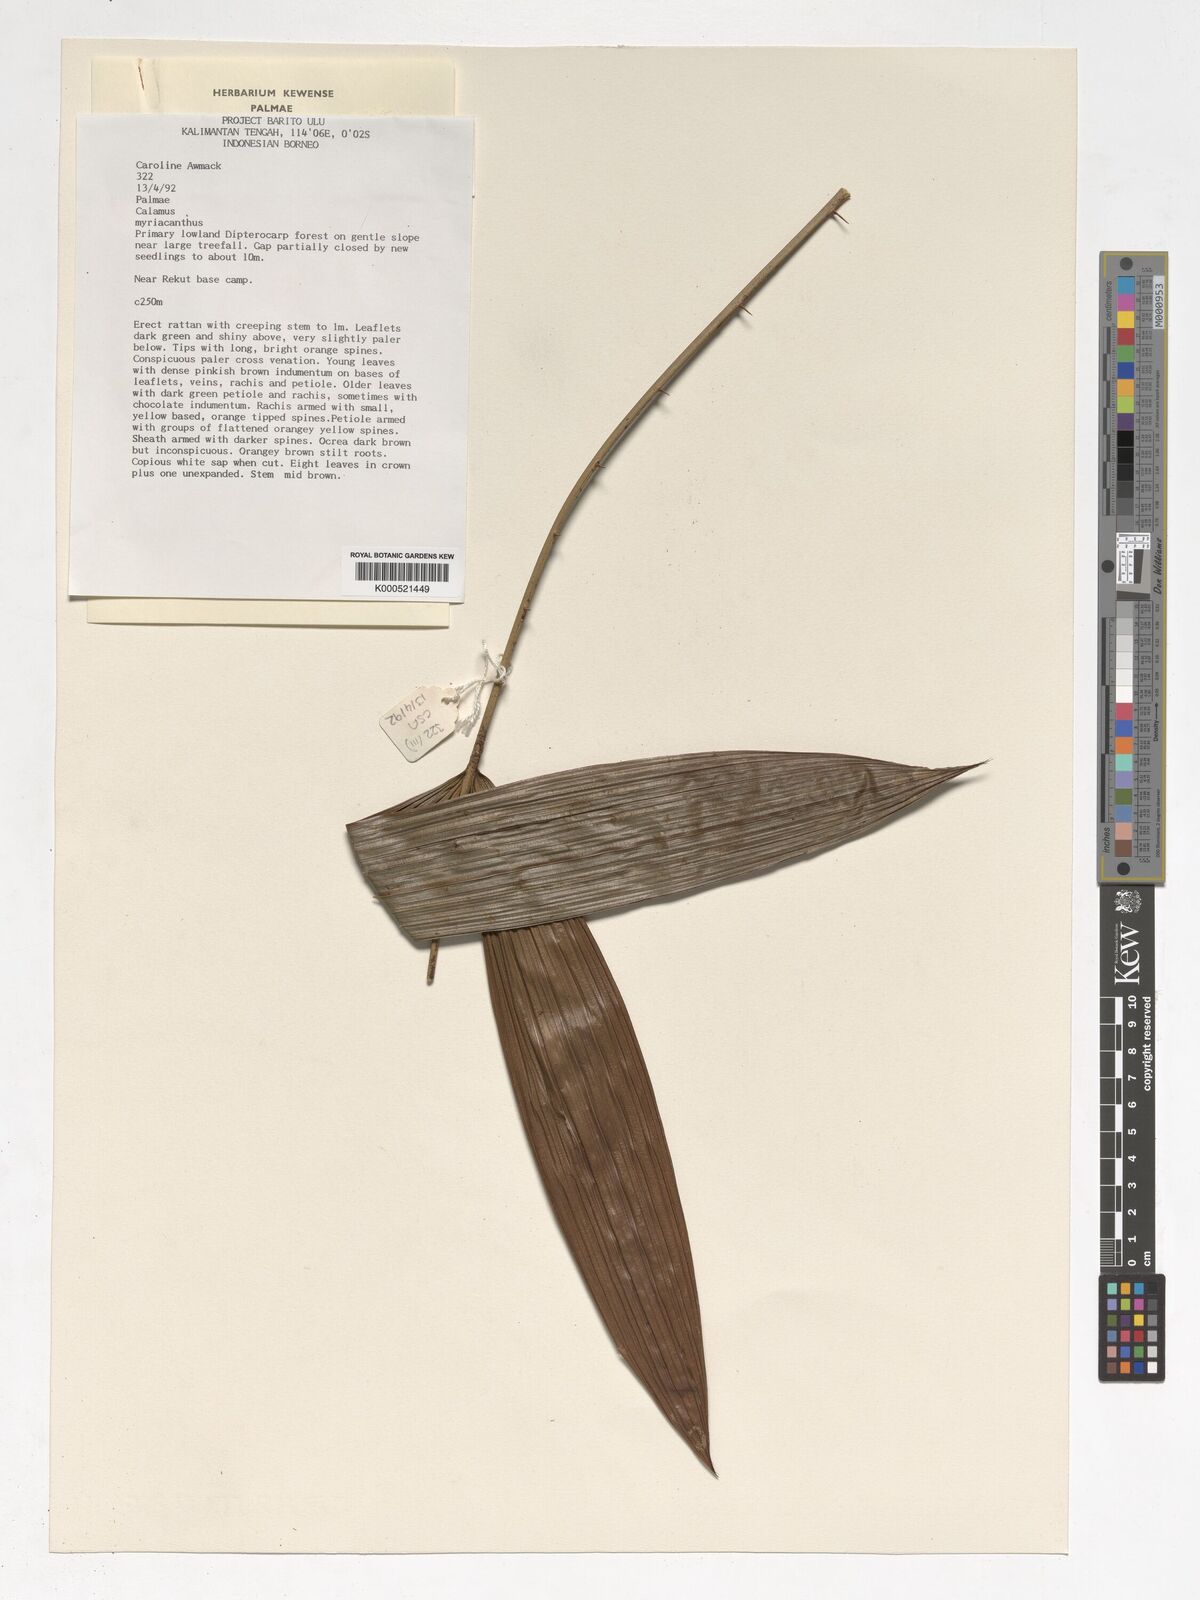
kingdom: Plantae
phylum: Tracheophyta
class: Liliopsida
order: Arecales
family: Arecaceae
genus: Calamus
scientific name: Calamus myriacanthus
